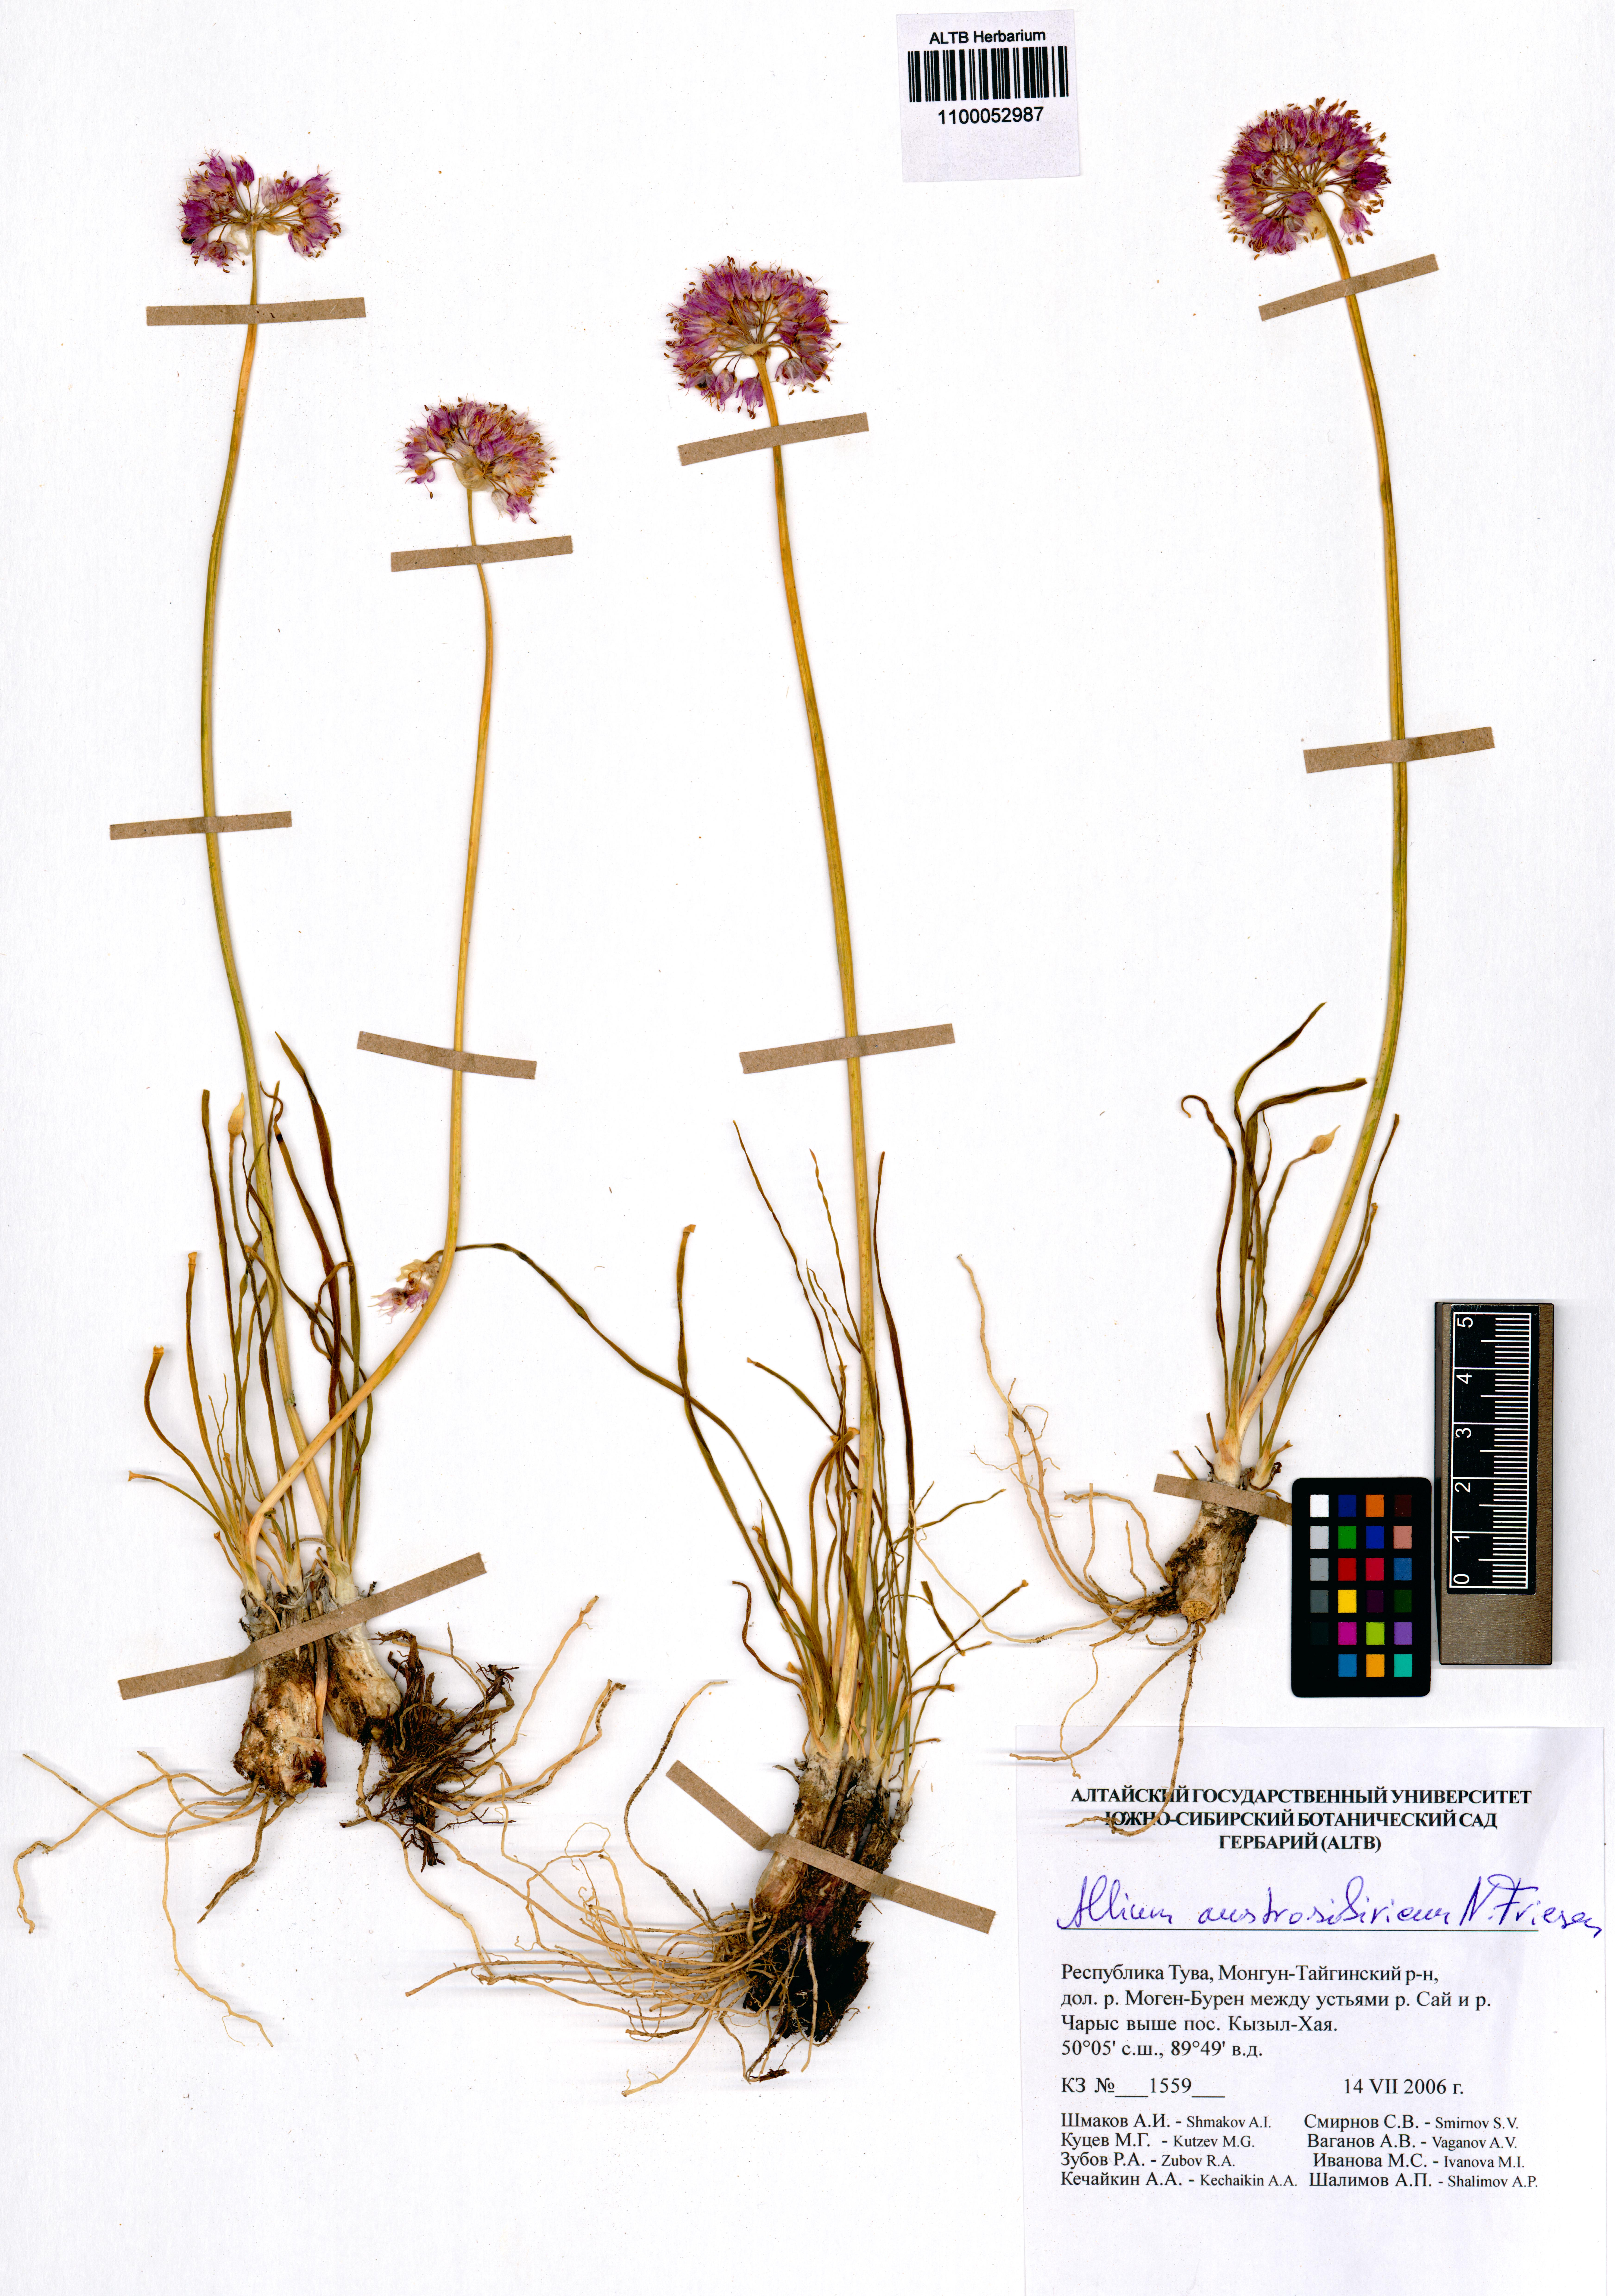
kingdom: Plantae
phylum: Tracheophyta
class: Liliopsida
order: Asparagales
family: Amaryllidaceae
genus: Allium
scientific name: Allium austrosibiricum
